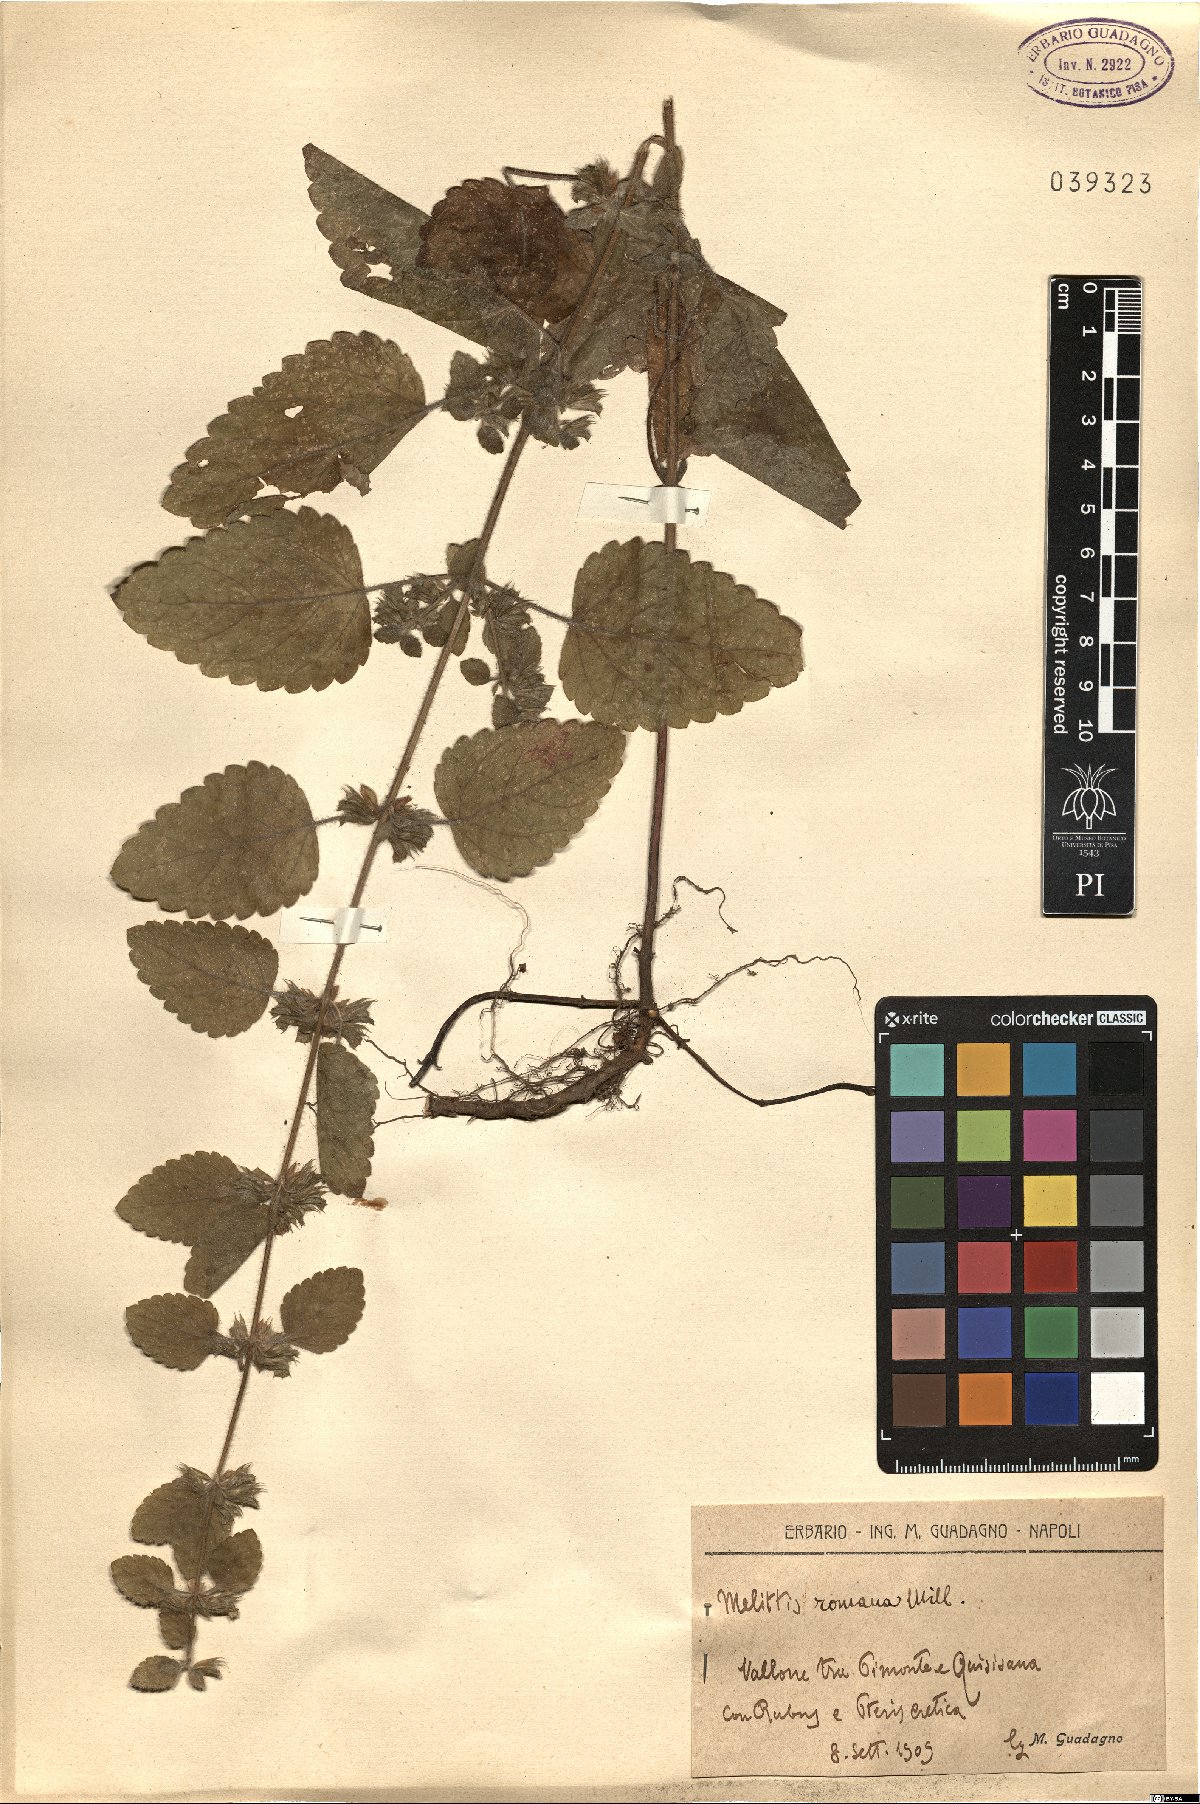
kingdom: Plantae
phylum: Tracheophyta
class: Magnoliopsida
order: Lamiales
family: Lamiaceae
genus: Melissa
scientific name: Melissa officinalis
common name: Balm
